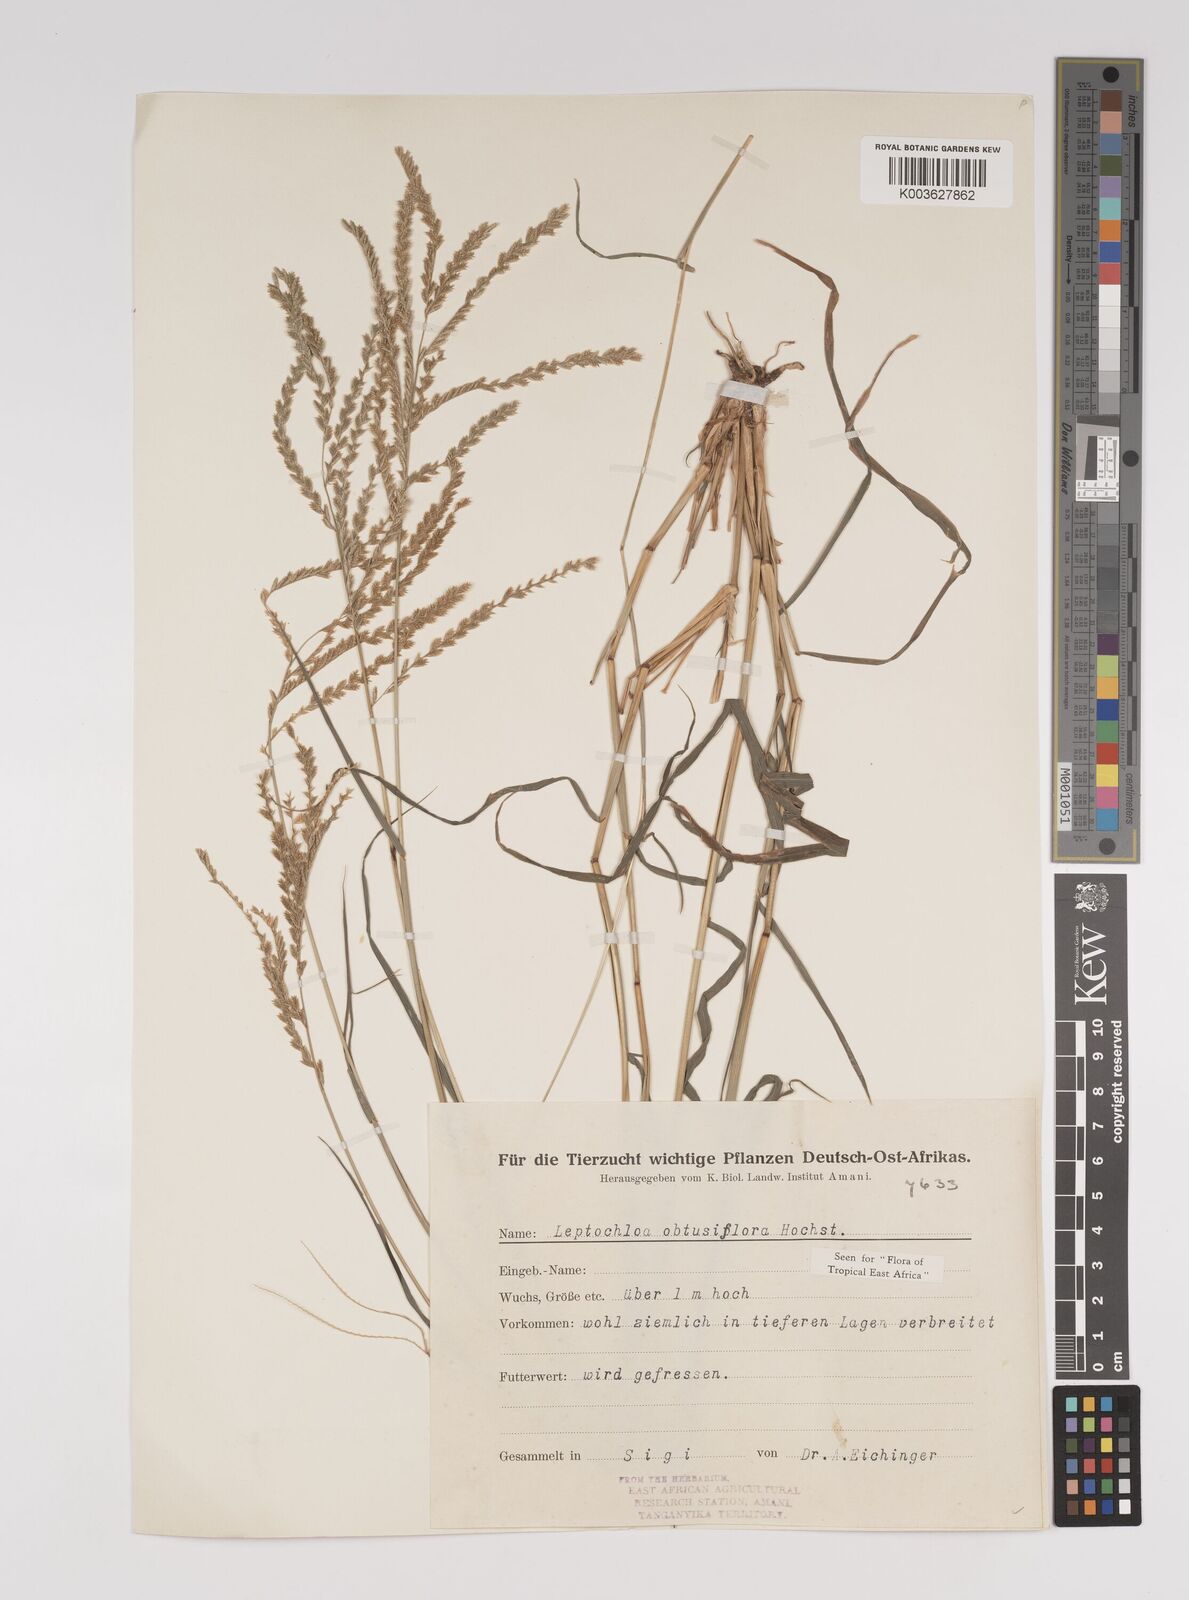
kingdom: Plantae
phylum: Tracheophyta
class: Liliopsida
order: Poales
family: Poaceae
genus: Disakisperma
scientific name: Disakisperma obtusiflorum
